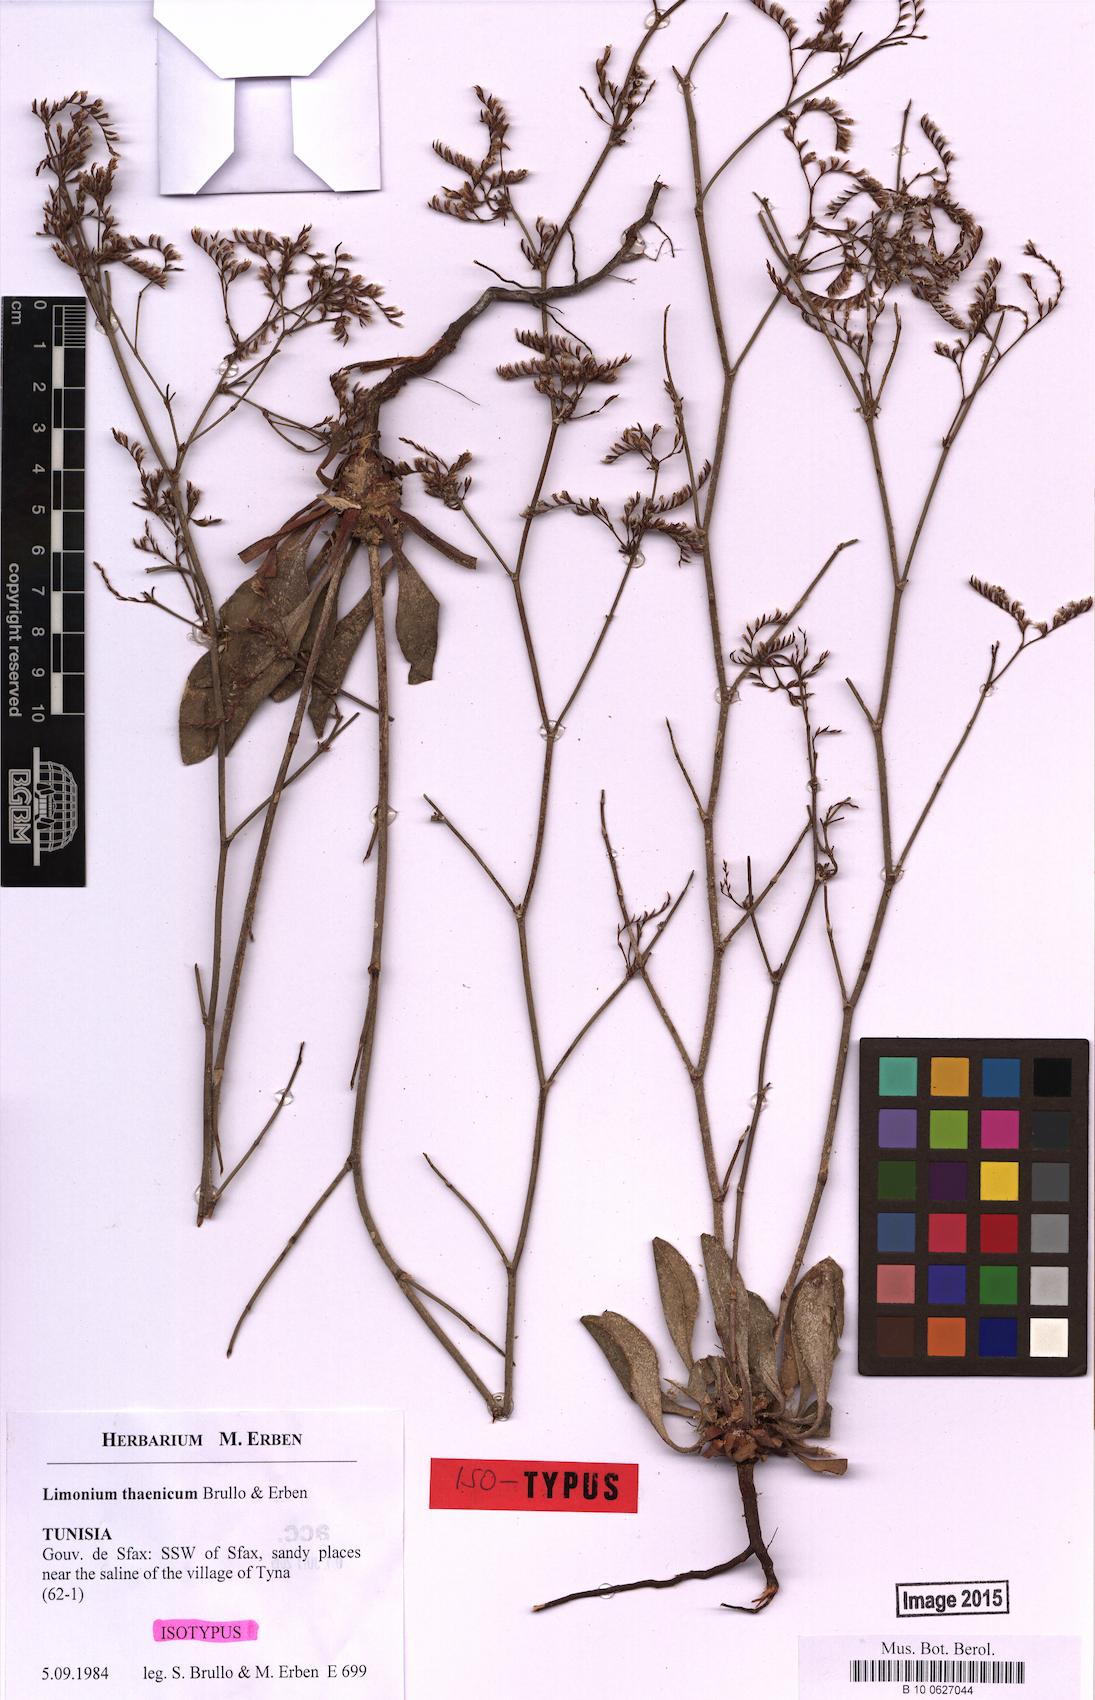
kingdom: Plantae
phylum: Tracheophyta
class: Magnoliopsida
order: Caryophyllales
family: Plumbaginaceae
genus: Limonium
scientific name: Limonium thaenicum
